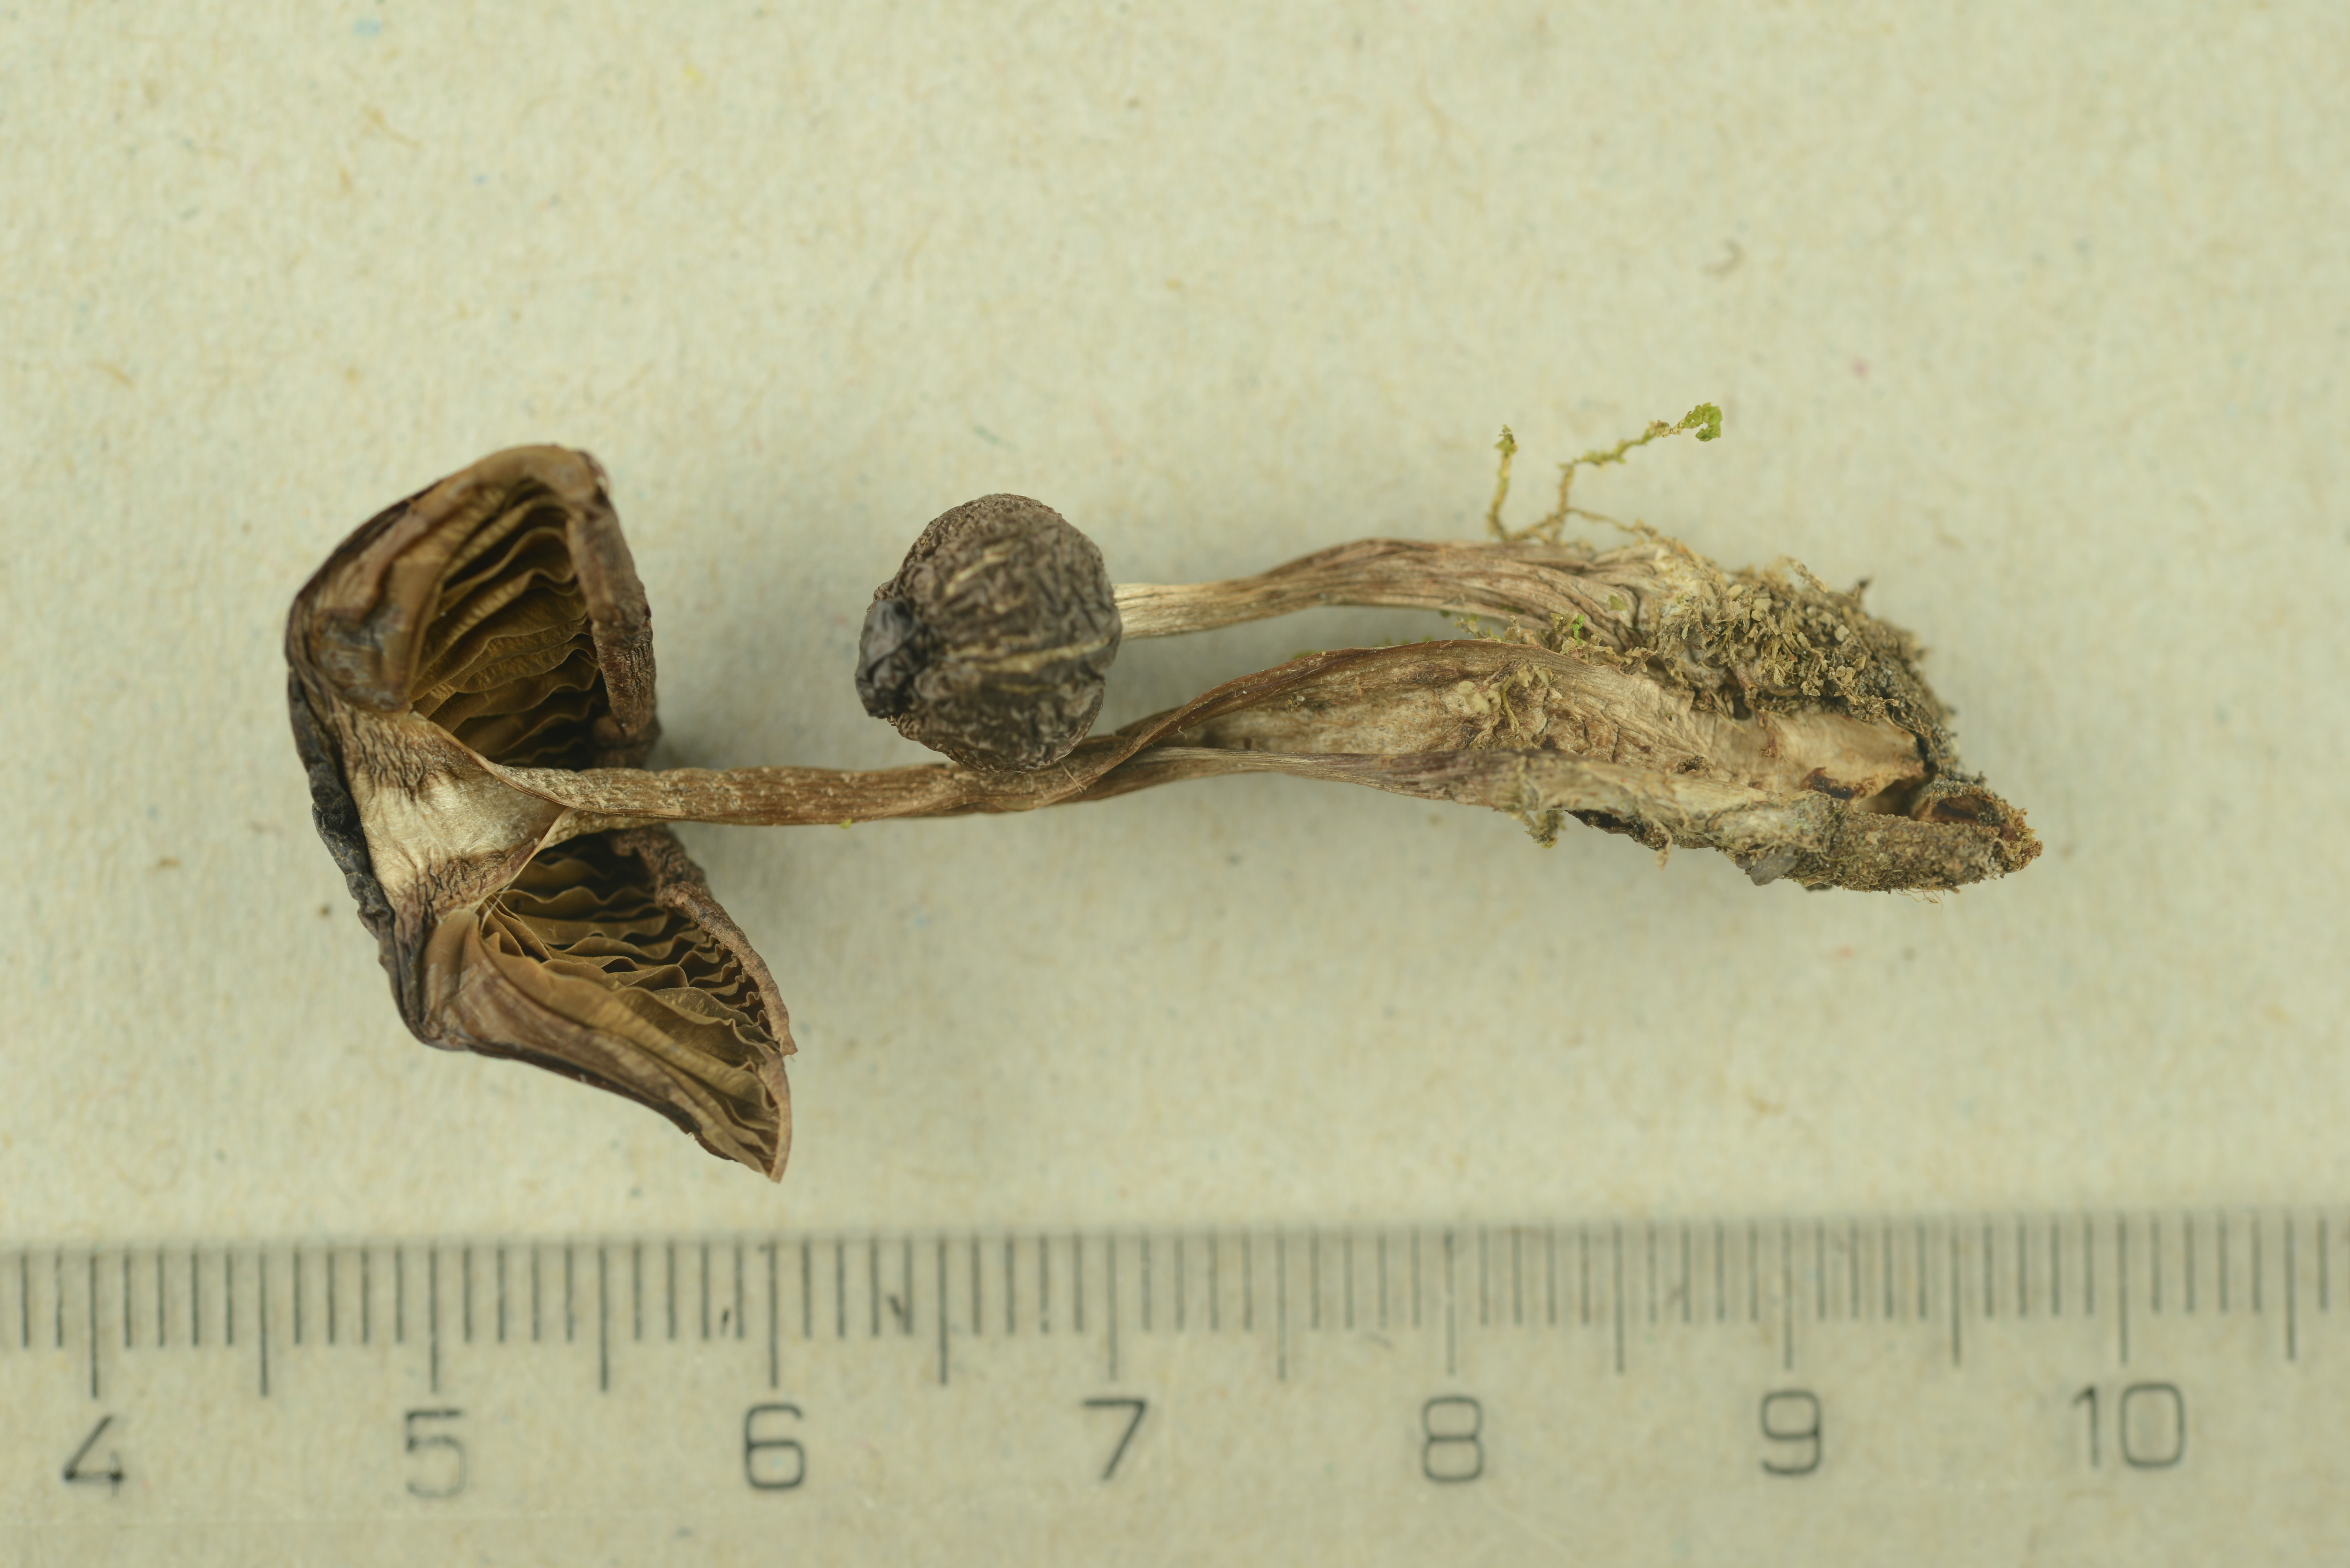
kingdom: Fungi
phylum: Basidiomycota
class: Agaricomycetes
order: Agaricales
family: Cortinariaceae
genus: Cortinarius
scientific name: Cortinarius inconspicuus
